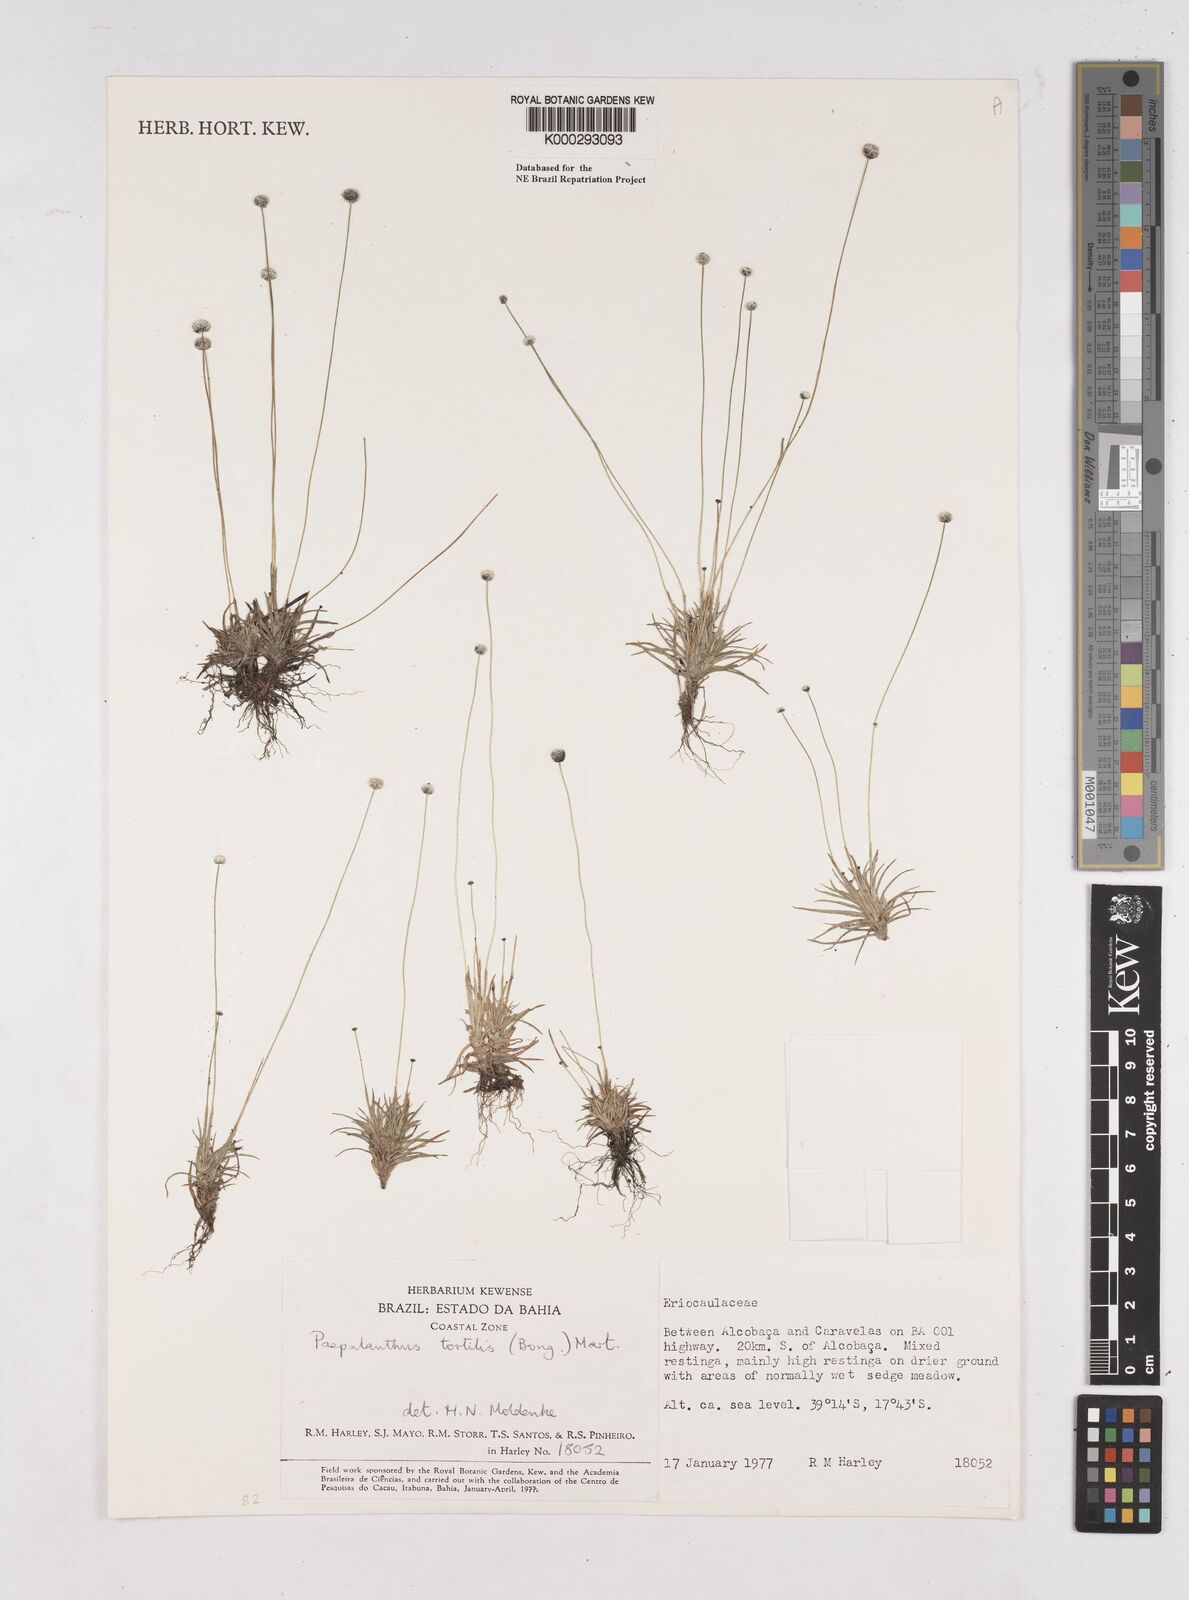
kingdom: Plantae
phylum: Tracheophyta
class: Liliopsida
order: Poales
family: Eriocaulaceae
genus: Paepalanthus
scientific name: Paepalanthus
